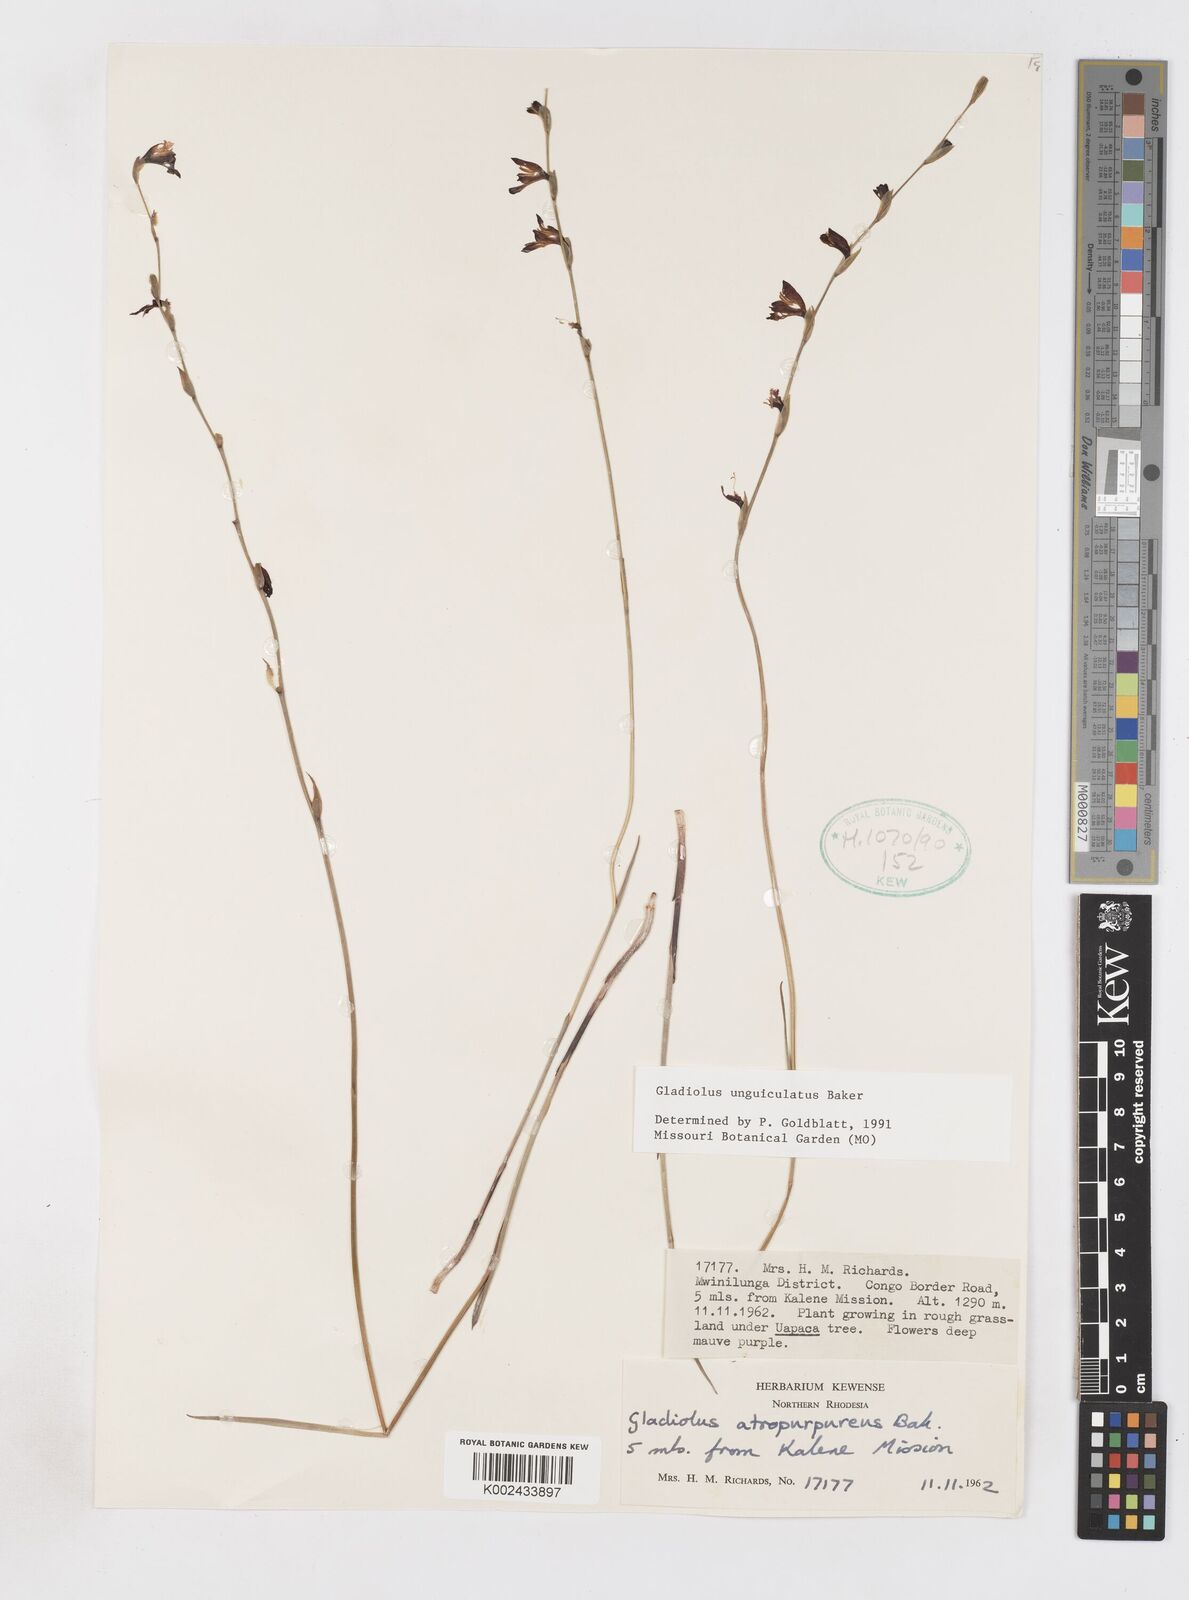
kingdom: Plantae
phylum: Tracheophyta
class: Liliopsida
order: Asparagales
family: Iridaceae
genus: Gladiolus
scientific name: Gladiolus unguiculatus
